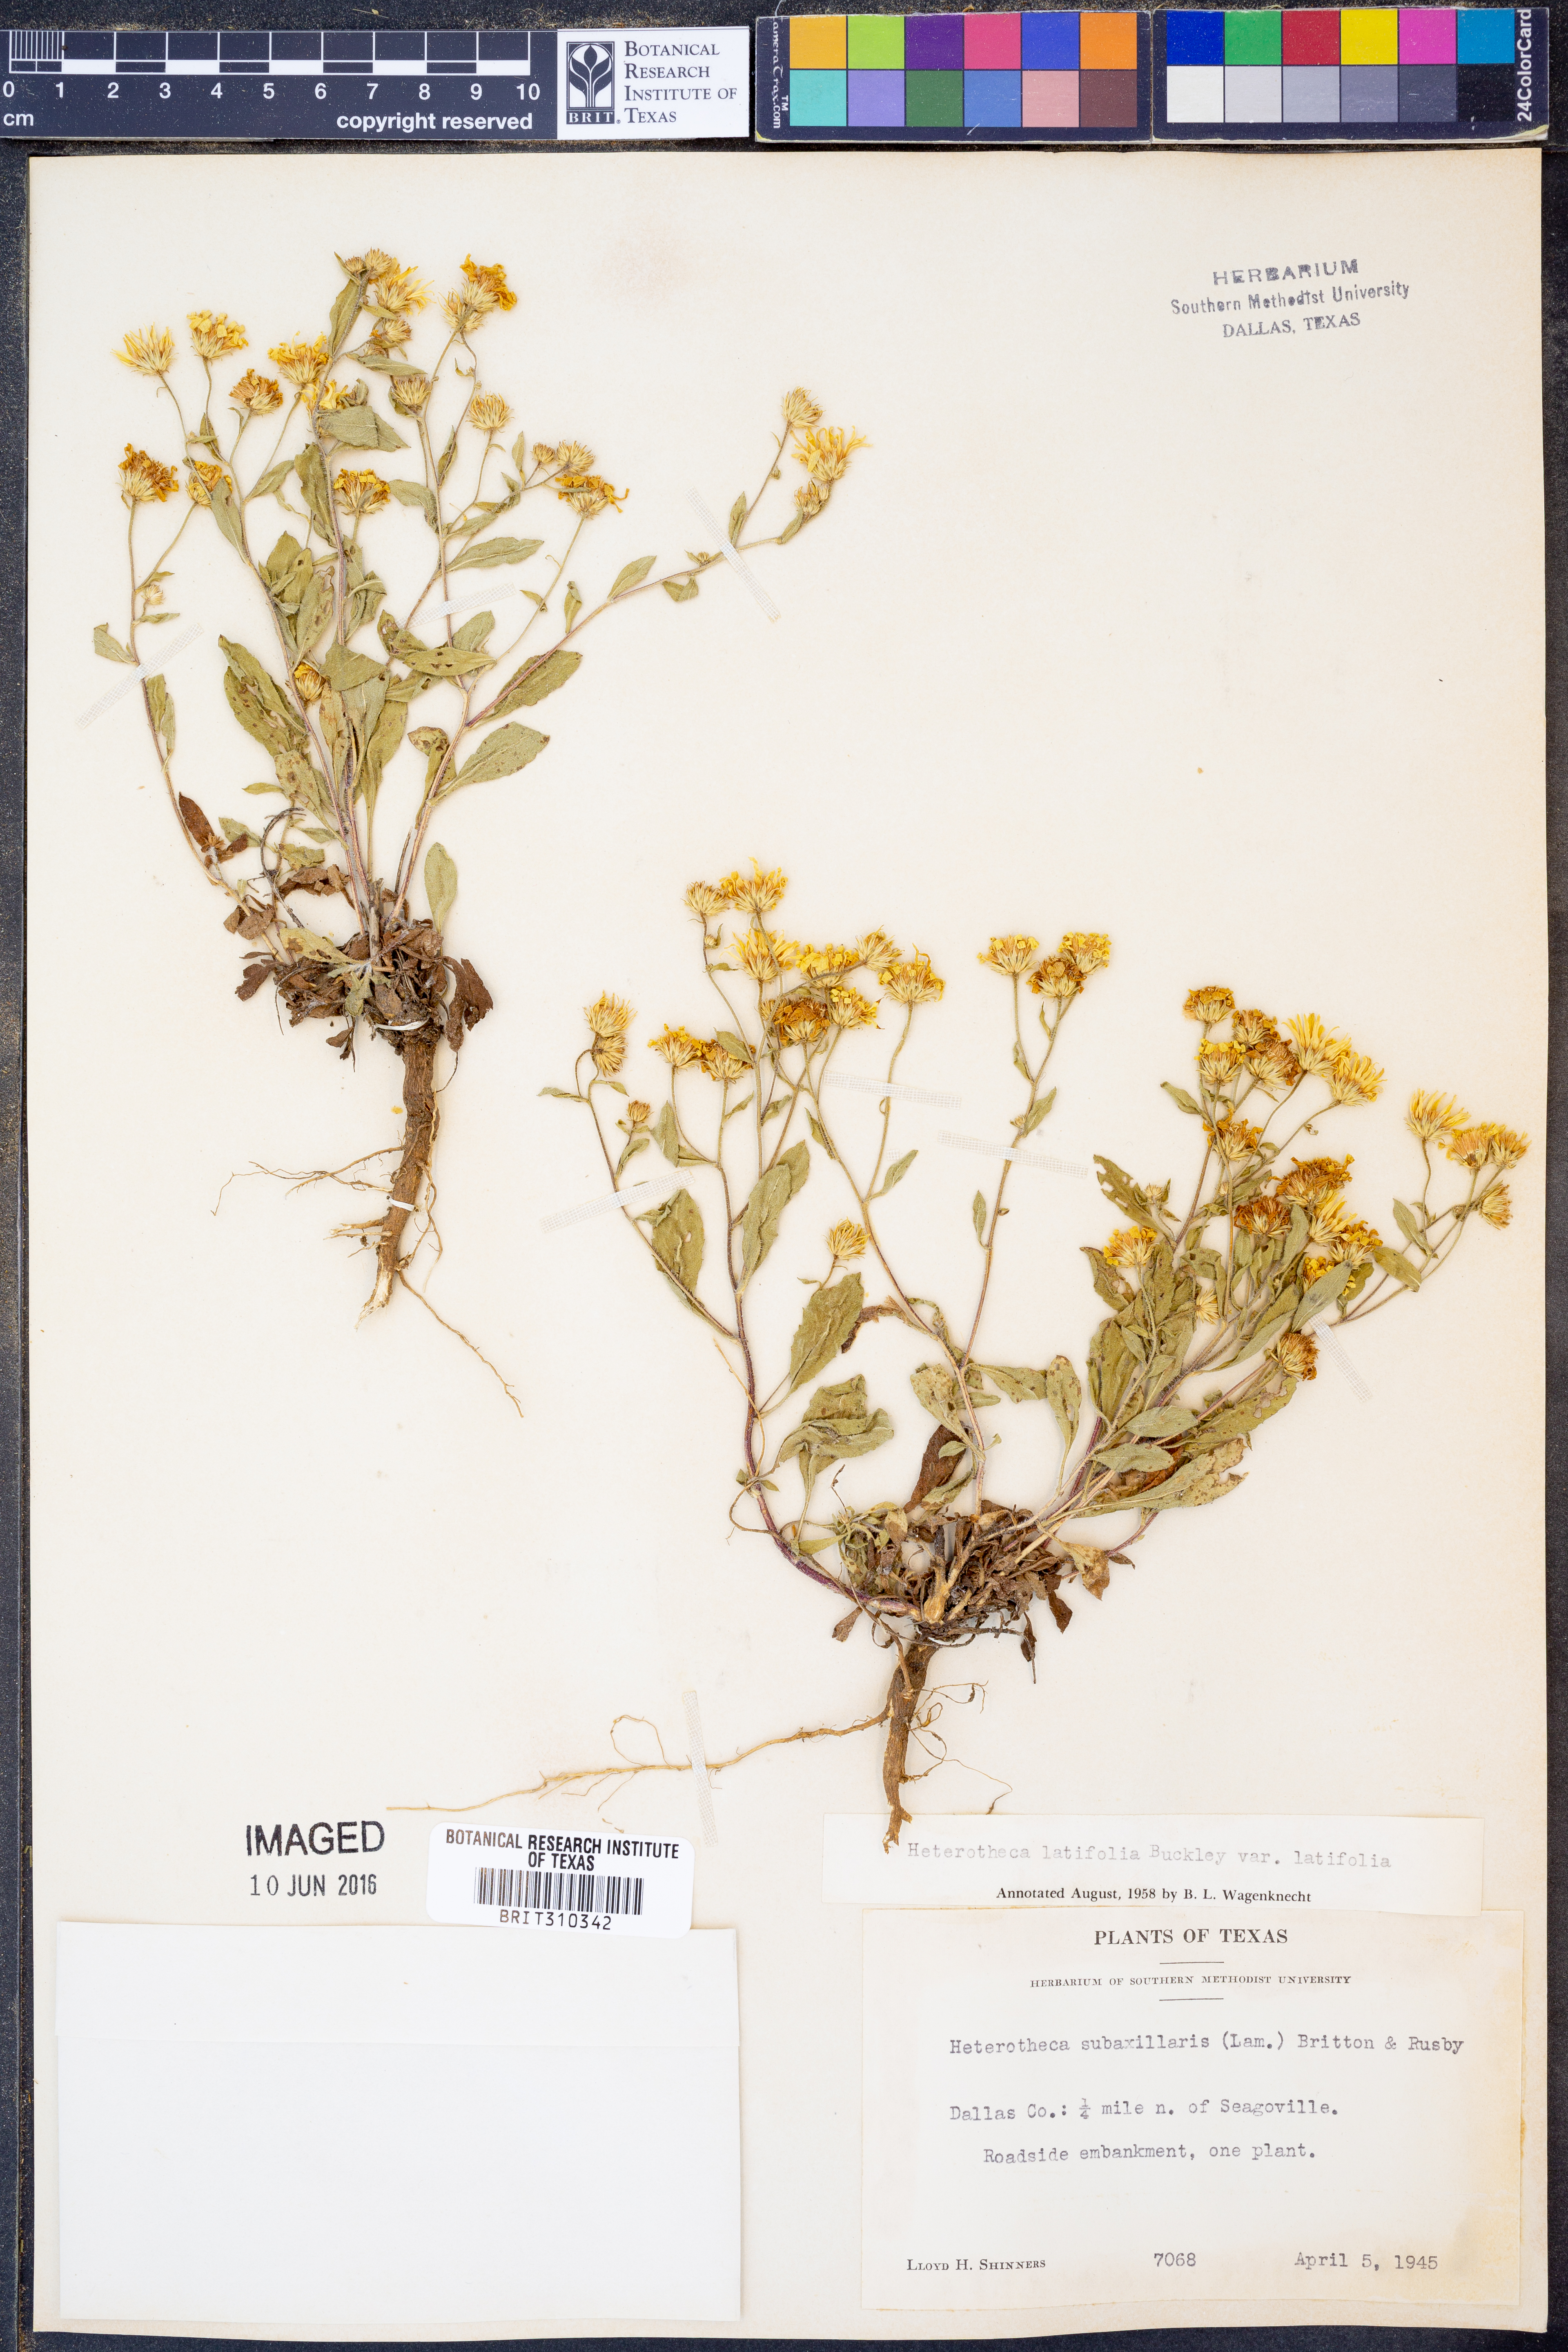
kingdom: Plantae
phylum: Tracheophyta
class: Magnoliopsida
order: Asterales
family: Asteraceae
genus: Heterotheca
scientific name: Heterotheca subaxillaris
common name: Camphorweed
